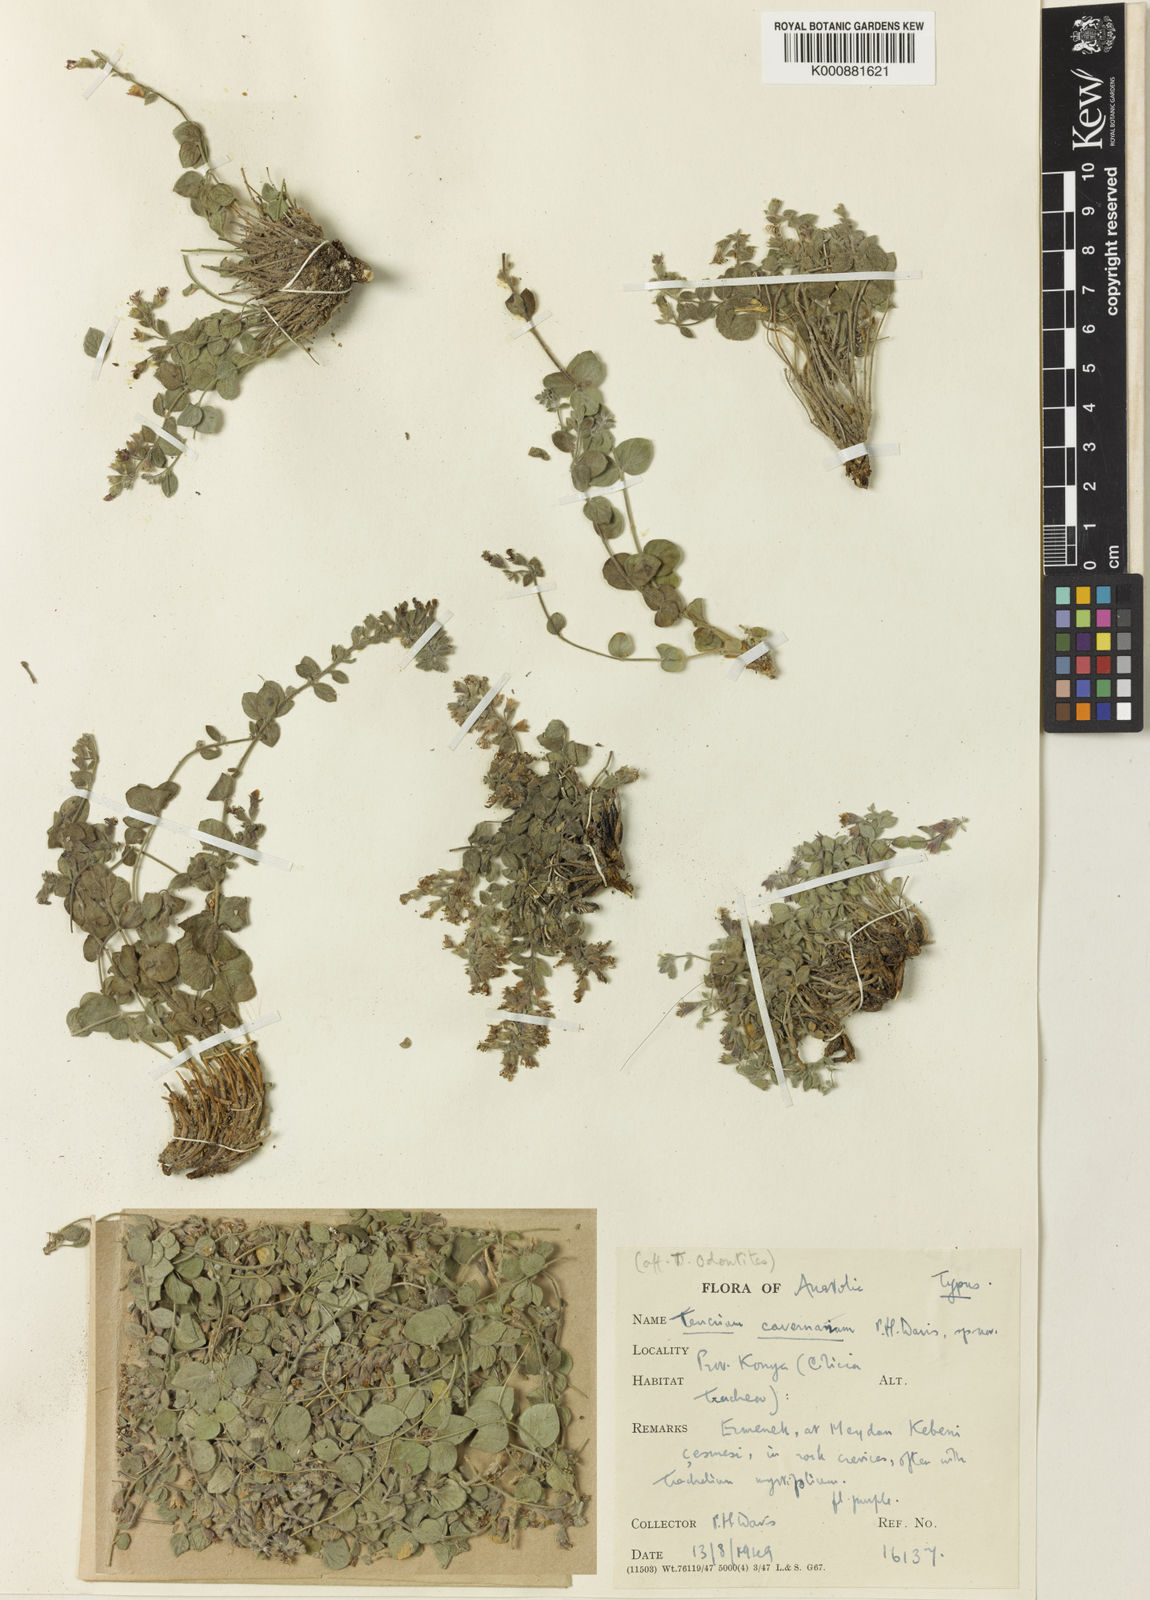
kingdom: Plantae
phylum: Tracheophyta
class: Magnoliopsida
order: Lamiales
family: Lamiaceae
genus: Teucrium
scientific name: Teucrium cavernarum
